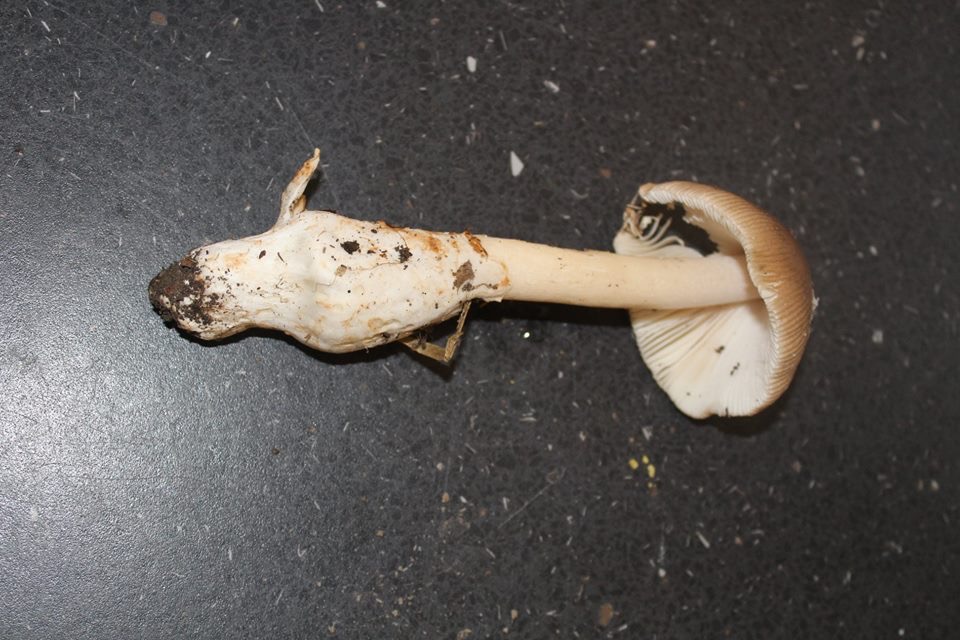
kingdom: Fungi
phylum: Basidiomycota
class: Agaricomycetes
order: Agaricales
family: Amanitaceae
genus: Amanita
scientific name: Amanita fulva
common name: brun kam-fluesvamp
